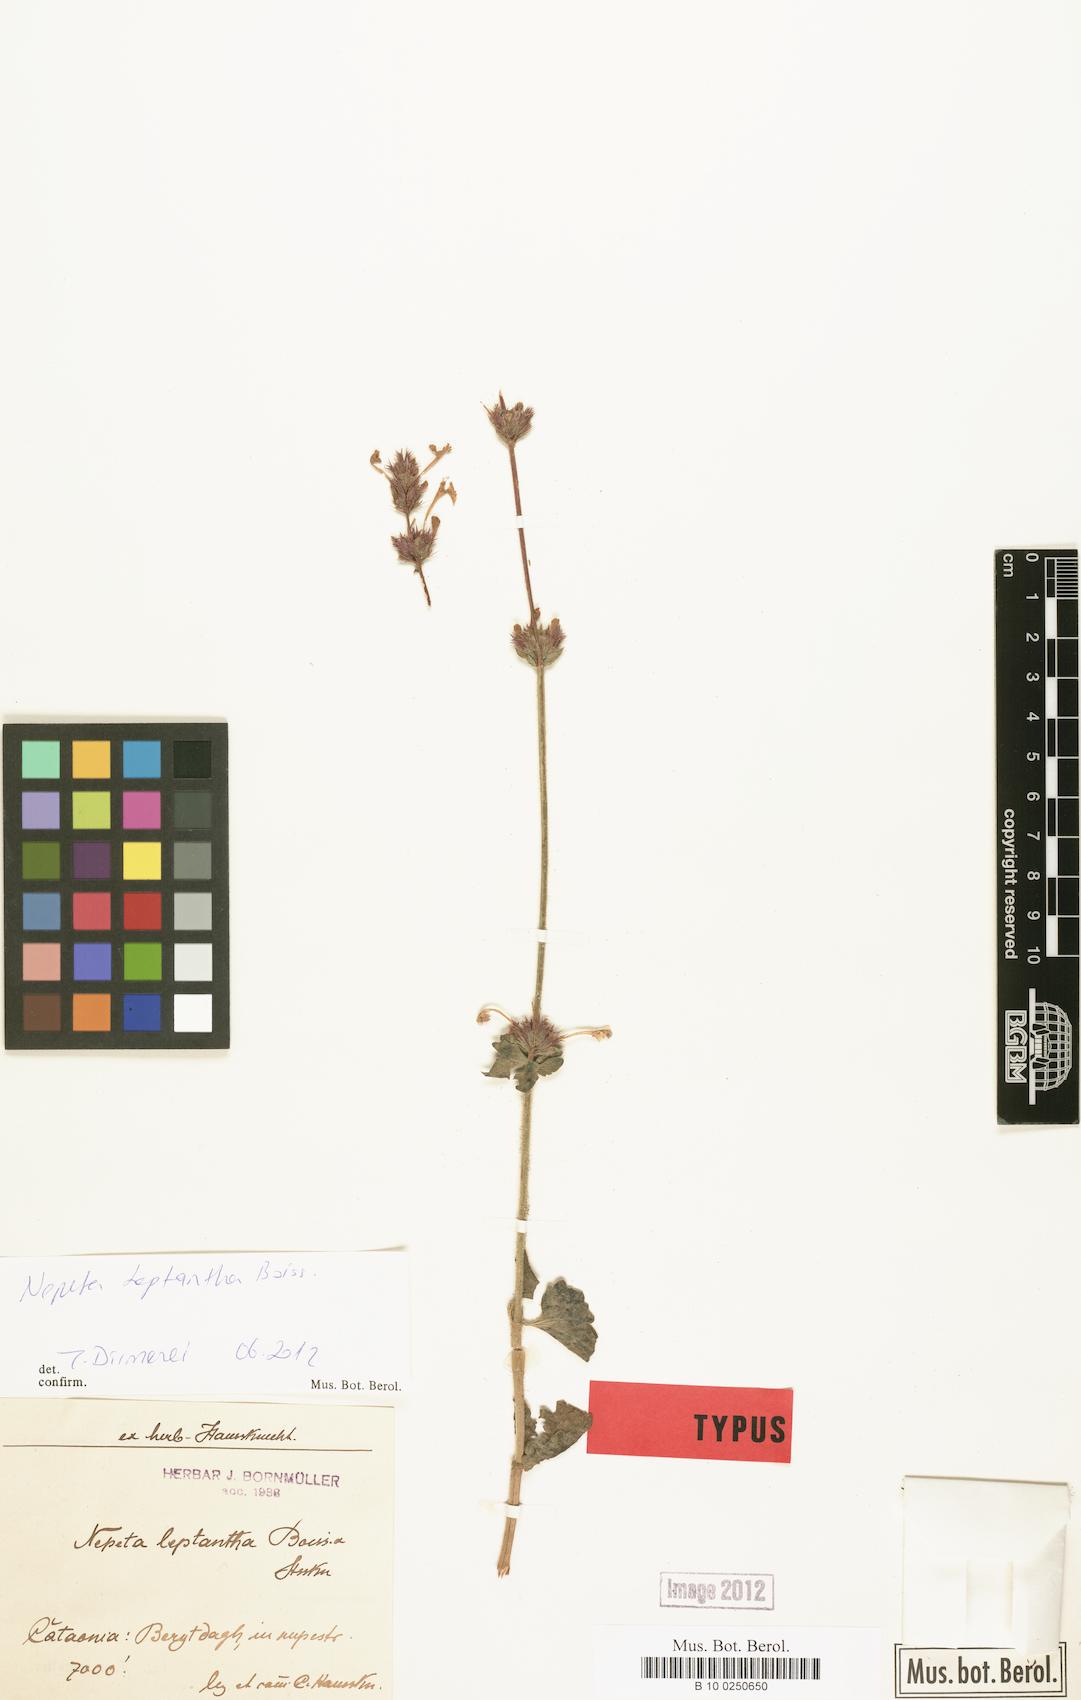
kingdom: Plantae
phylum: Tracheophyta
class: Magnoliopsida
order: Lamiales
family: Lamiaceae
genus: Nepeta
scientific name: Nepeta glomerata
